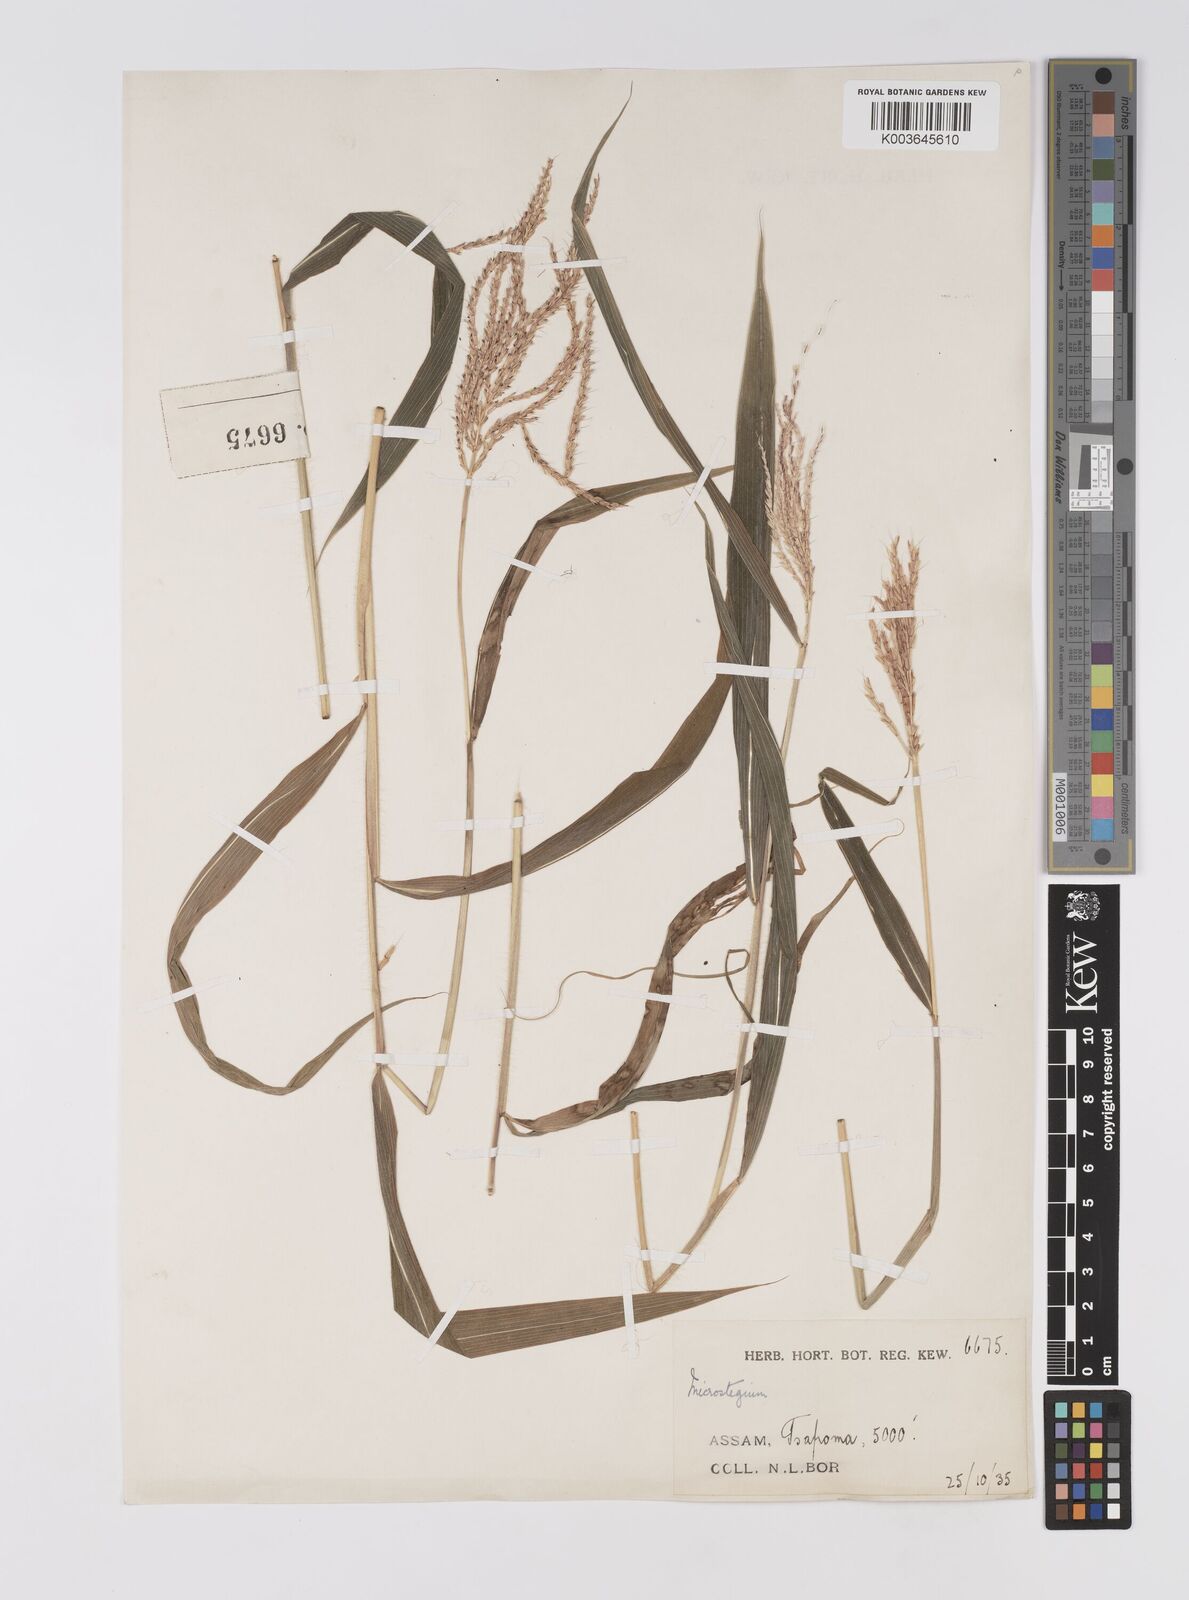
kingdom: Plantae
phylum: Tracheophyta
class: Liliopsida
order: Poales
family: Poaceae
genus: Microstegium
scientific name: Microstegium fasciculatum
